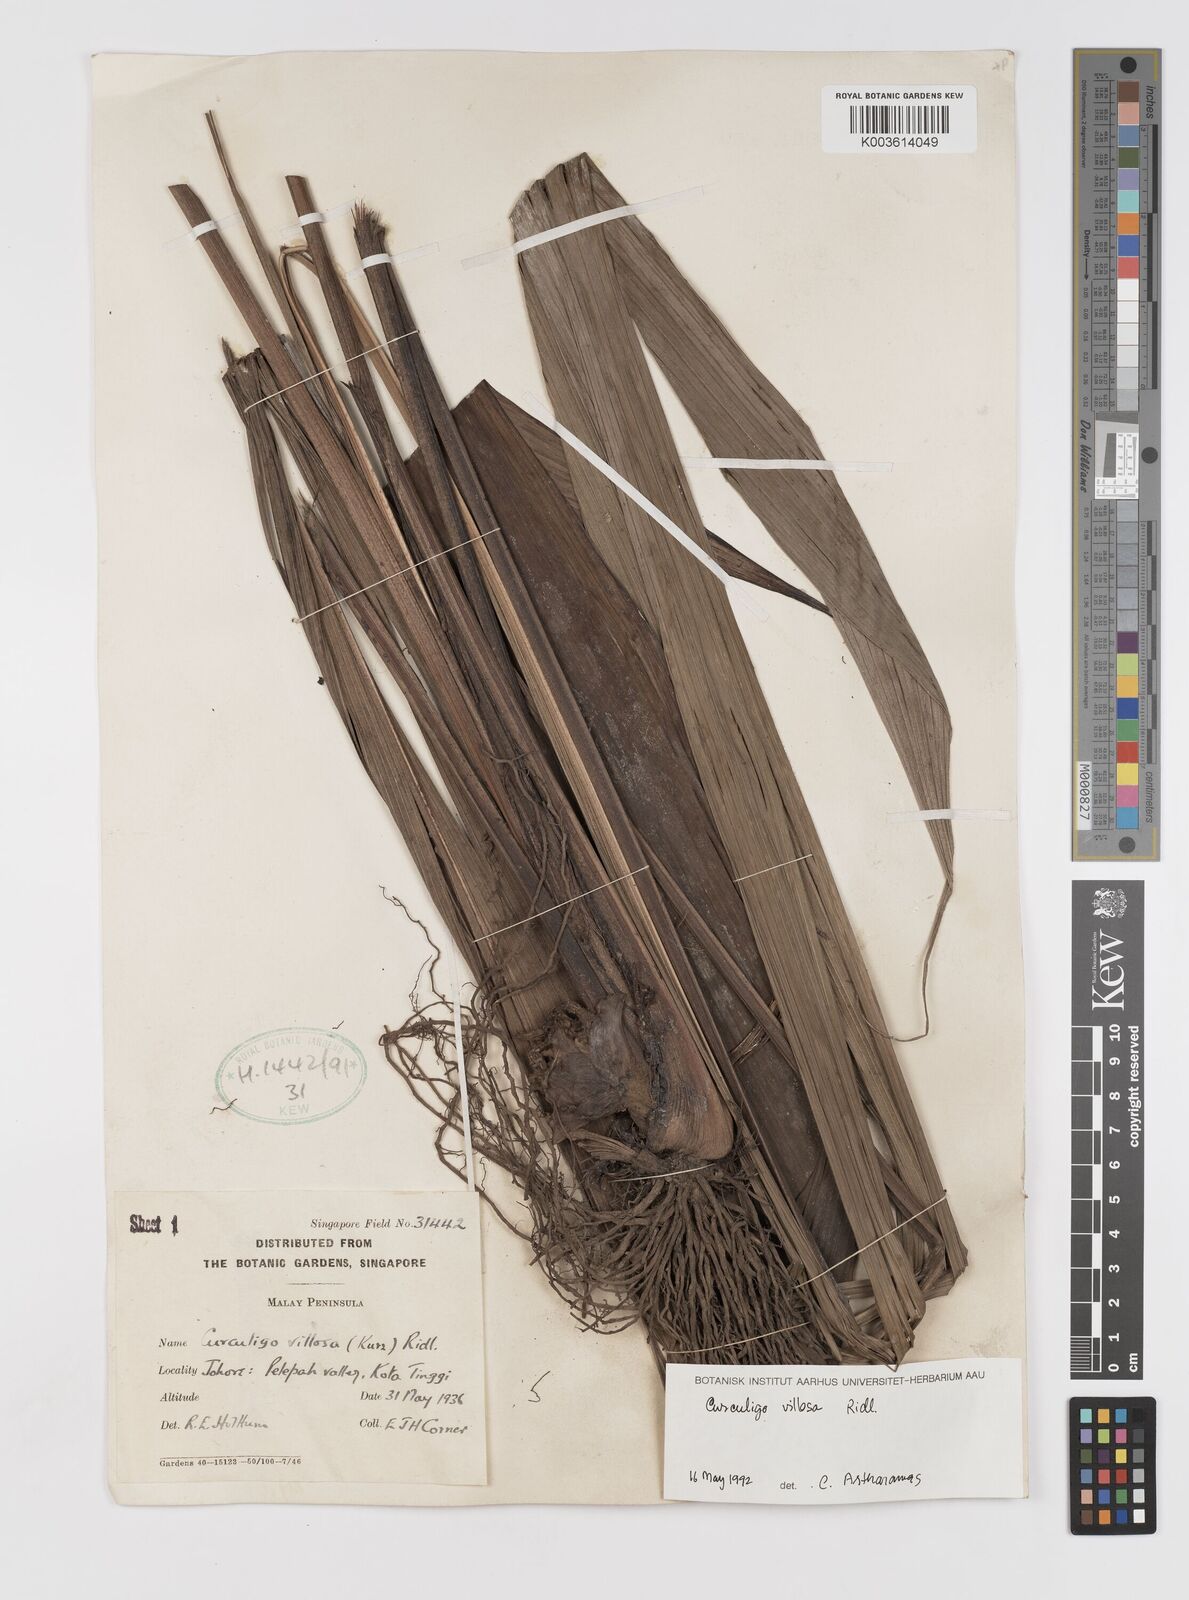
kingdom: Plantae
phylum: Tracheophyta
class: Liliopsida
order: Asparagales
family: Hypoxidaceae
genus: Curculigo
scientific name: Curculigo
